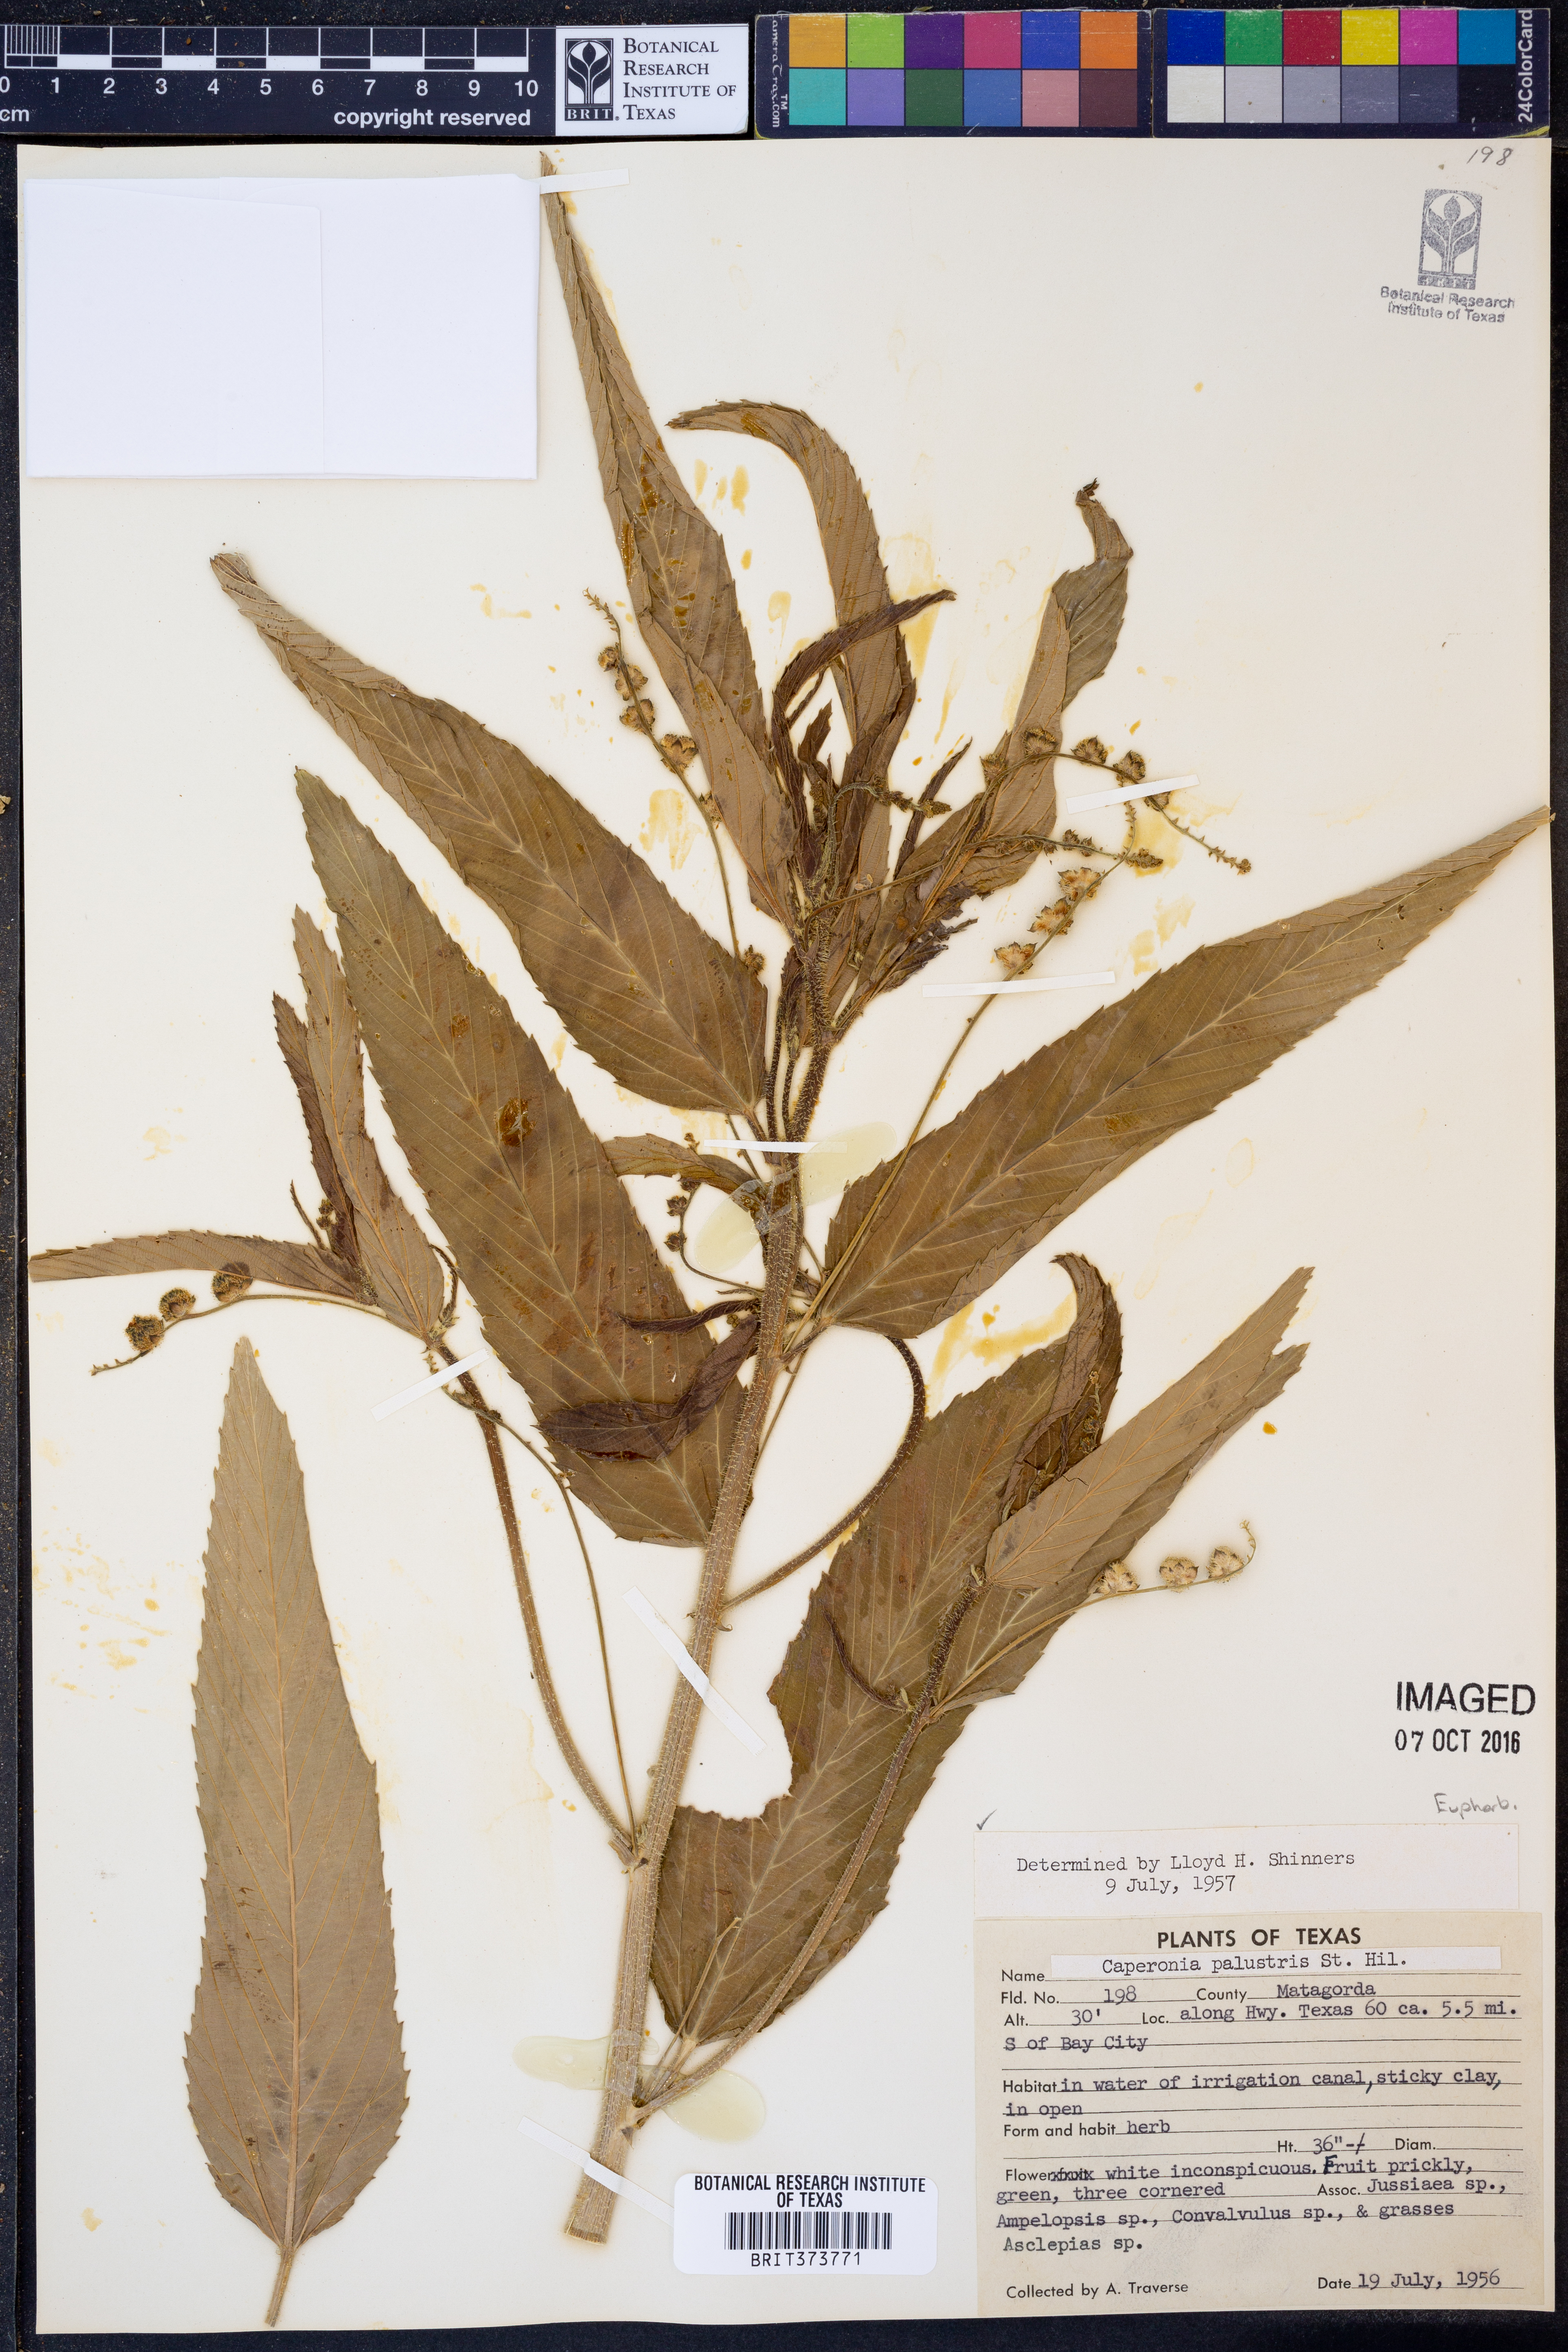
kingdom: Plantae
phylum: Tracheophyta
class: Magnoliopsida
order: Malpighiales
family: Euphorbiaceae
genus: Caperonia
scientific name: Caperonia palustris
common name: Sacatrapo
